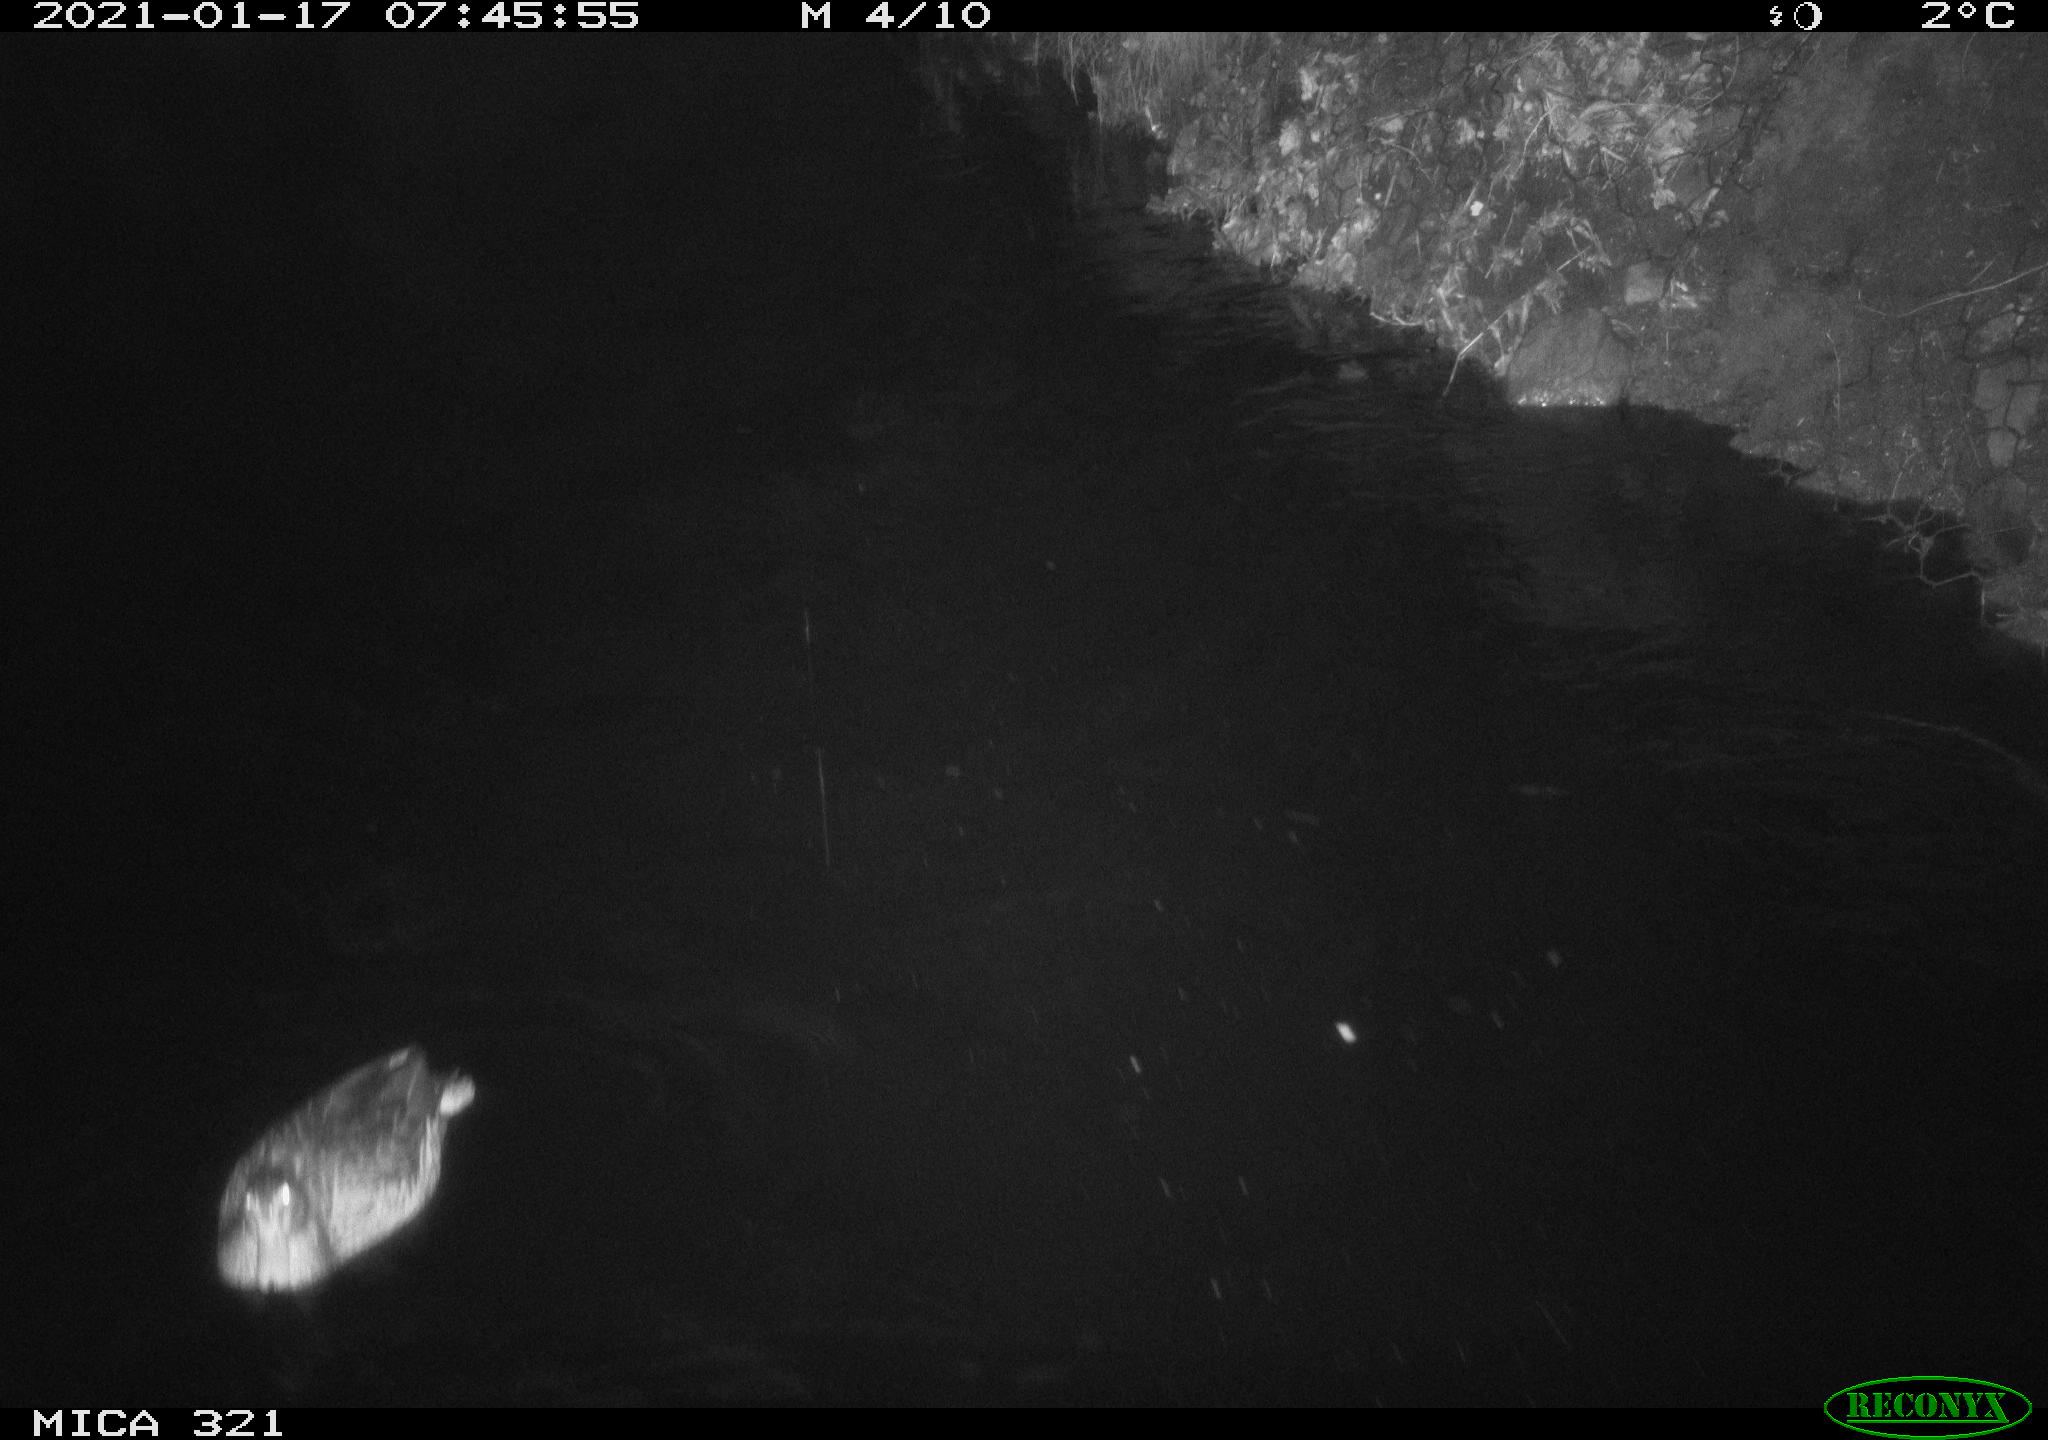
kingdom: Animalia
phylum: Chordata
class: Aves
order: Anseriformes
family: Anatidae
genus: Anas
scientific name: Anas platyrhynchos
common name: Mallard
